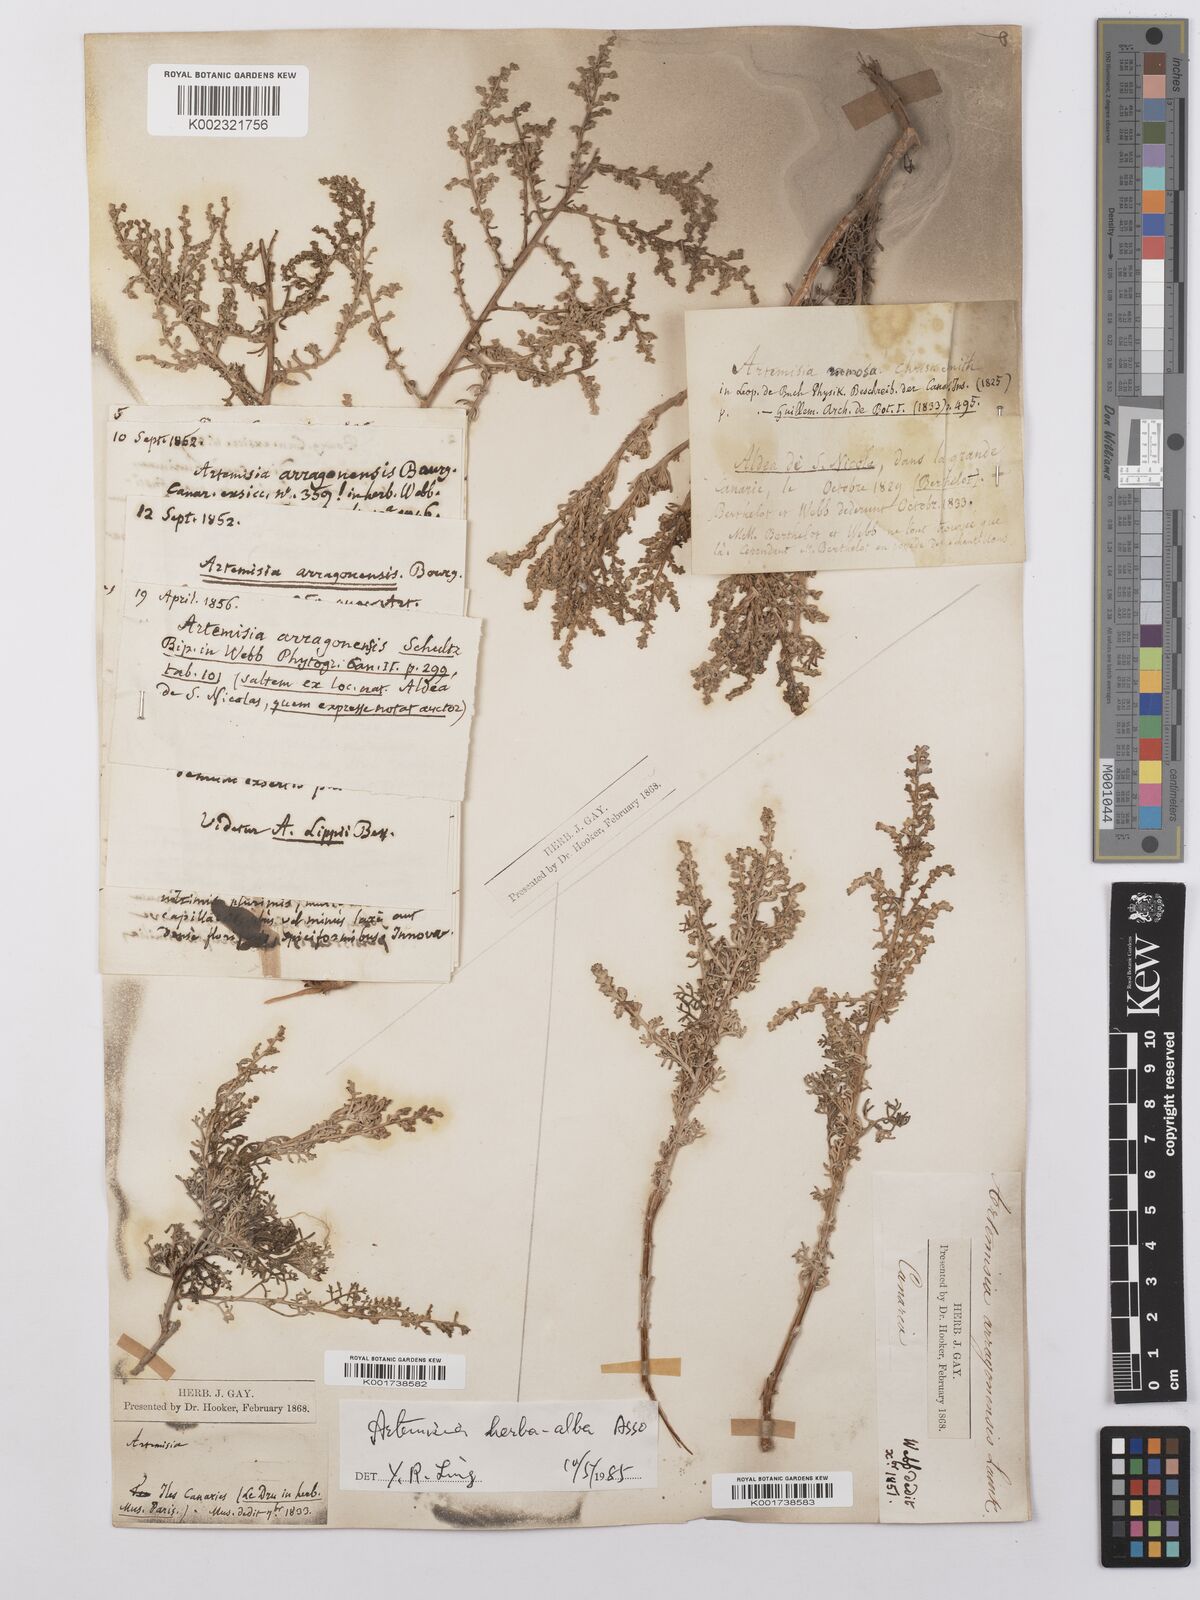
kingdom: Plantae
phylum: Tracheophyta
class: Magnoliopsida
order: Asterales
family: Asteraceae
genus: Artemisia
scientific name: Artemisia herba-alba
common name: White wormwood
